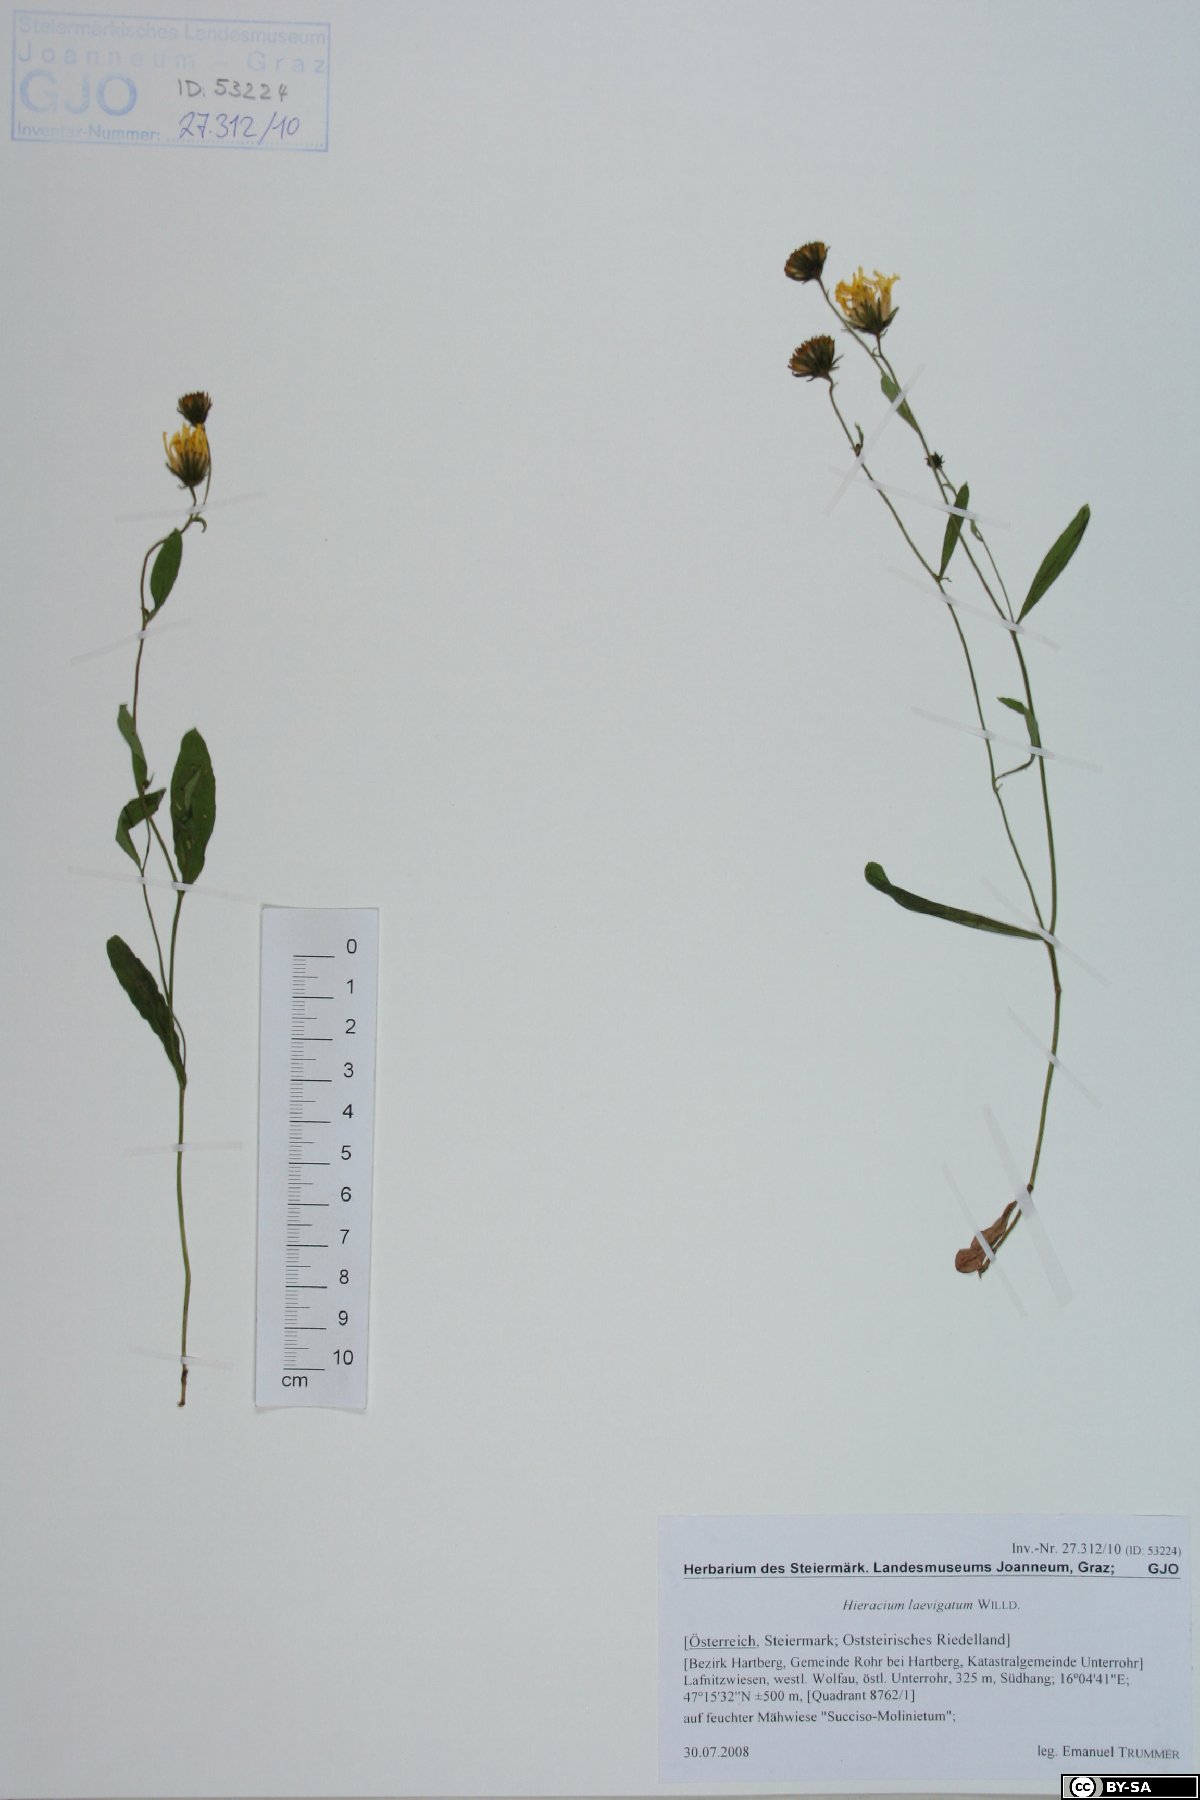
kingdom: Plantae
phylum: Tracheophyta
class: Magnoliopsida
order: Asterales
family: Asteraceae
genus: Hieracium
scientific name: Hieracium laevigatum
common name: Smooth hawkweed
